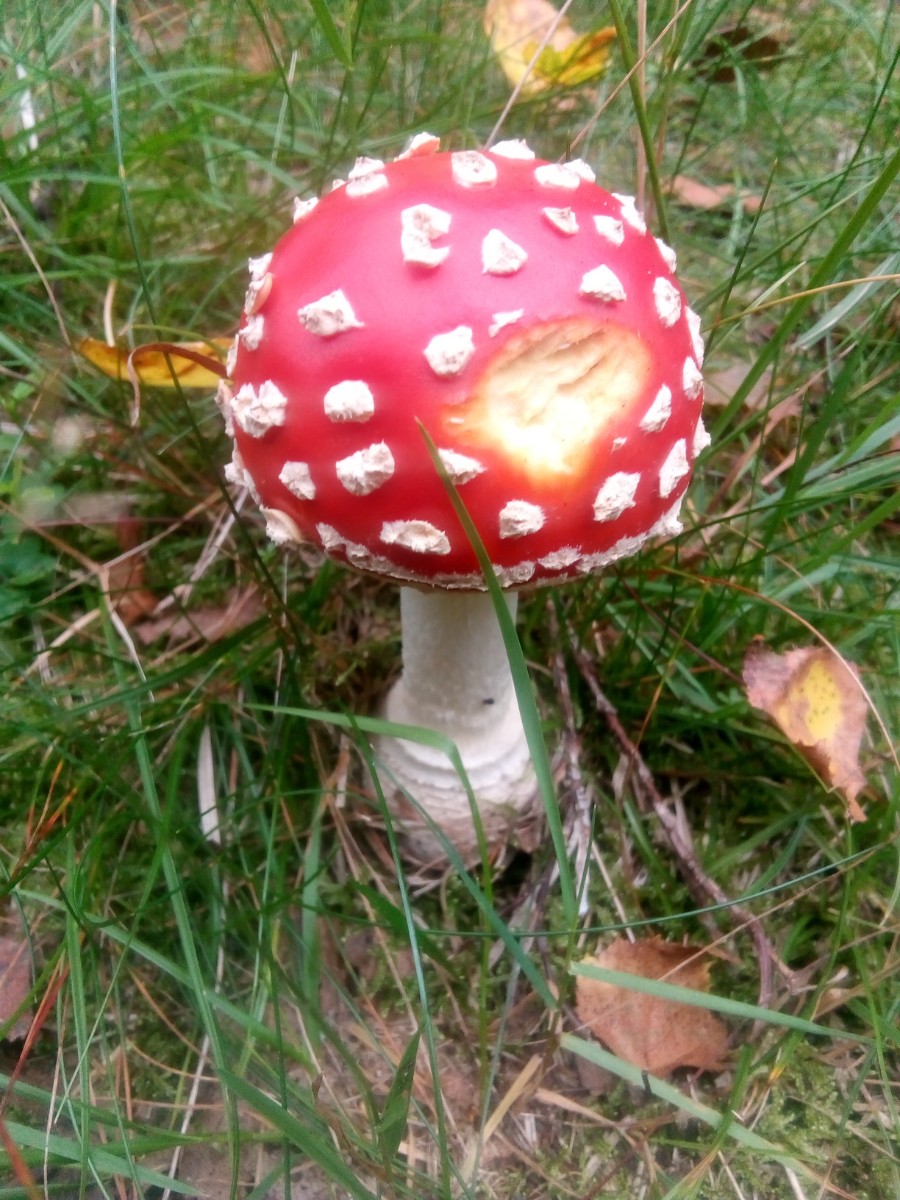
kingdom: Fungi
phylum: Basidiomycota
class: Agaricomycetes
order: Agaricales
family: Amanitaceae
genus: Amanita
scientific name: Amanita muscaria
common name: rød fluesvamp
